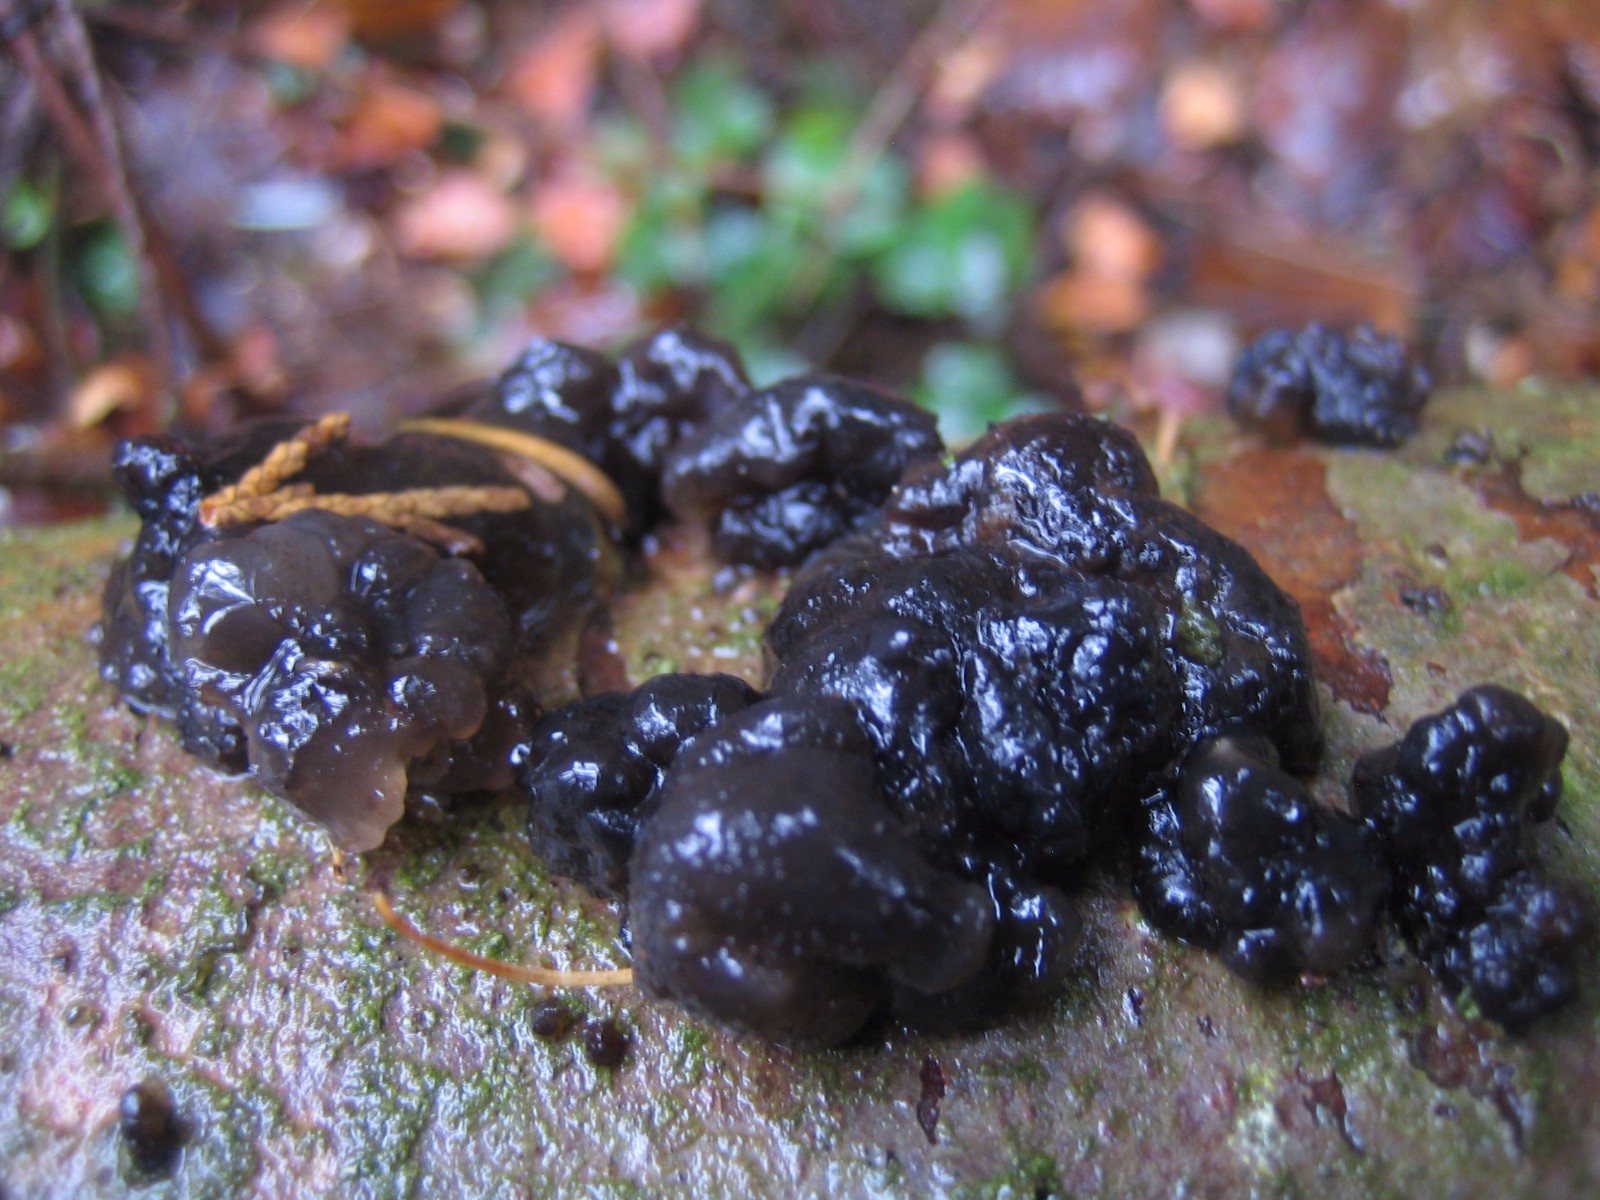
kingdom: Fungi
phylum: Basidiomycota
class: Agaricomycetes
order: Auriculariales
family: Auriculariaceae
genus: Exidia
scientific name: Exidia nigricans
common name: almindelig bævretop
